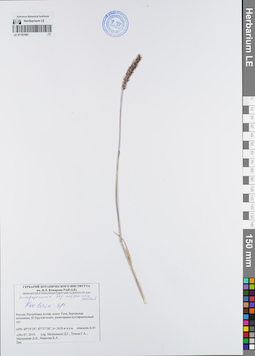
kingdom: Plantae
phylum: Tracheophyta
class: Liliopsida
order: Poales
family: Poaceae
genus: Koeleria
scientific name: Koeleria
